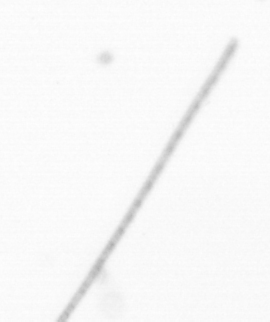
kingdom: Chromista
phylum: Ochrophyta
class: Bacillariophyceae
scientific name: Bacillariophyceae
